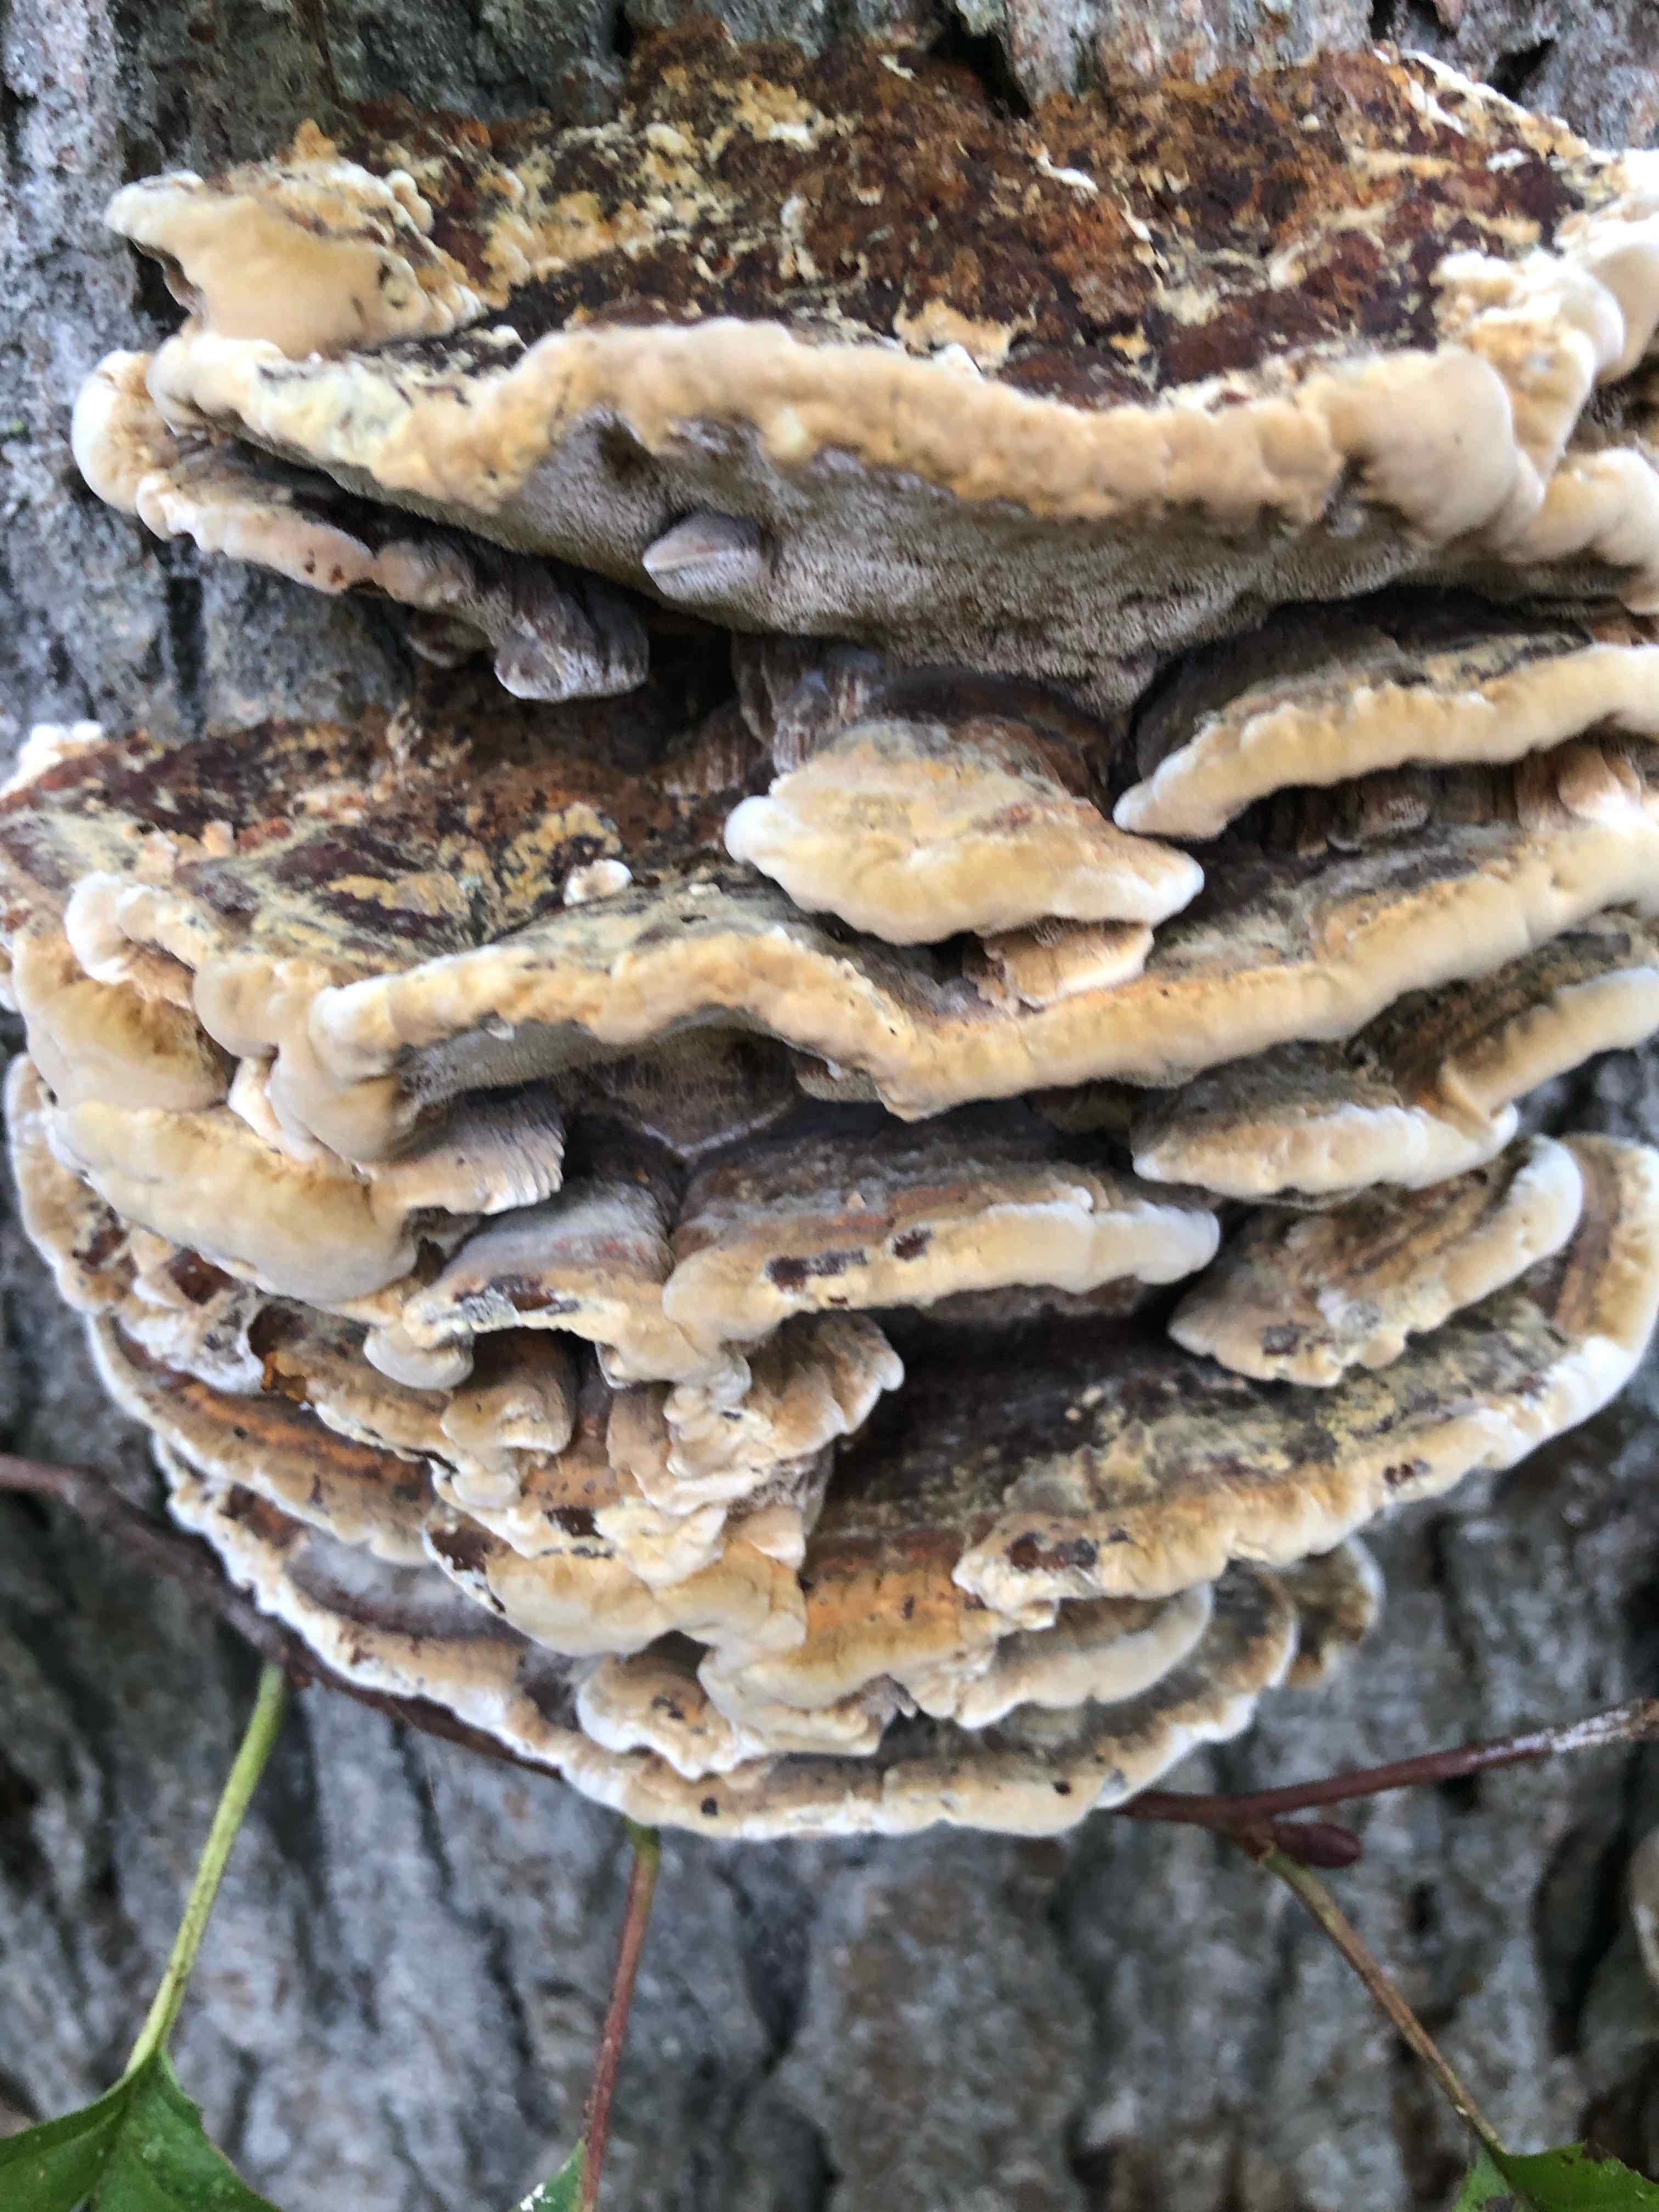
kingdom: Fungi
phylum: Basidiomycota
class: Agaricomycetes
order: Hymenochaetales
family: Hymenochaetaceae
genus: Xanthoporia
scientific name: Xanthoporia radiata
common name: elle-spejlporesvamp
